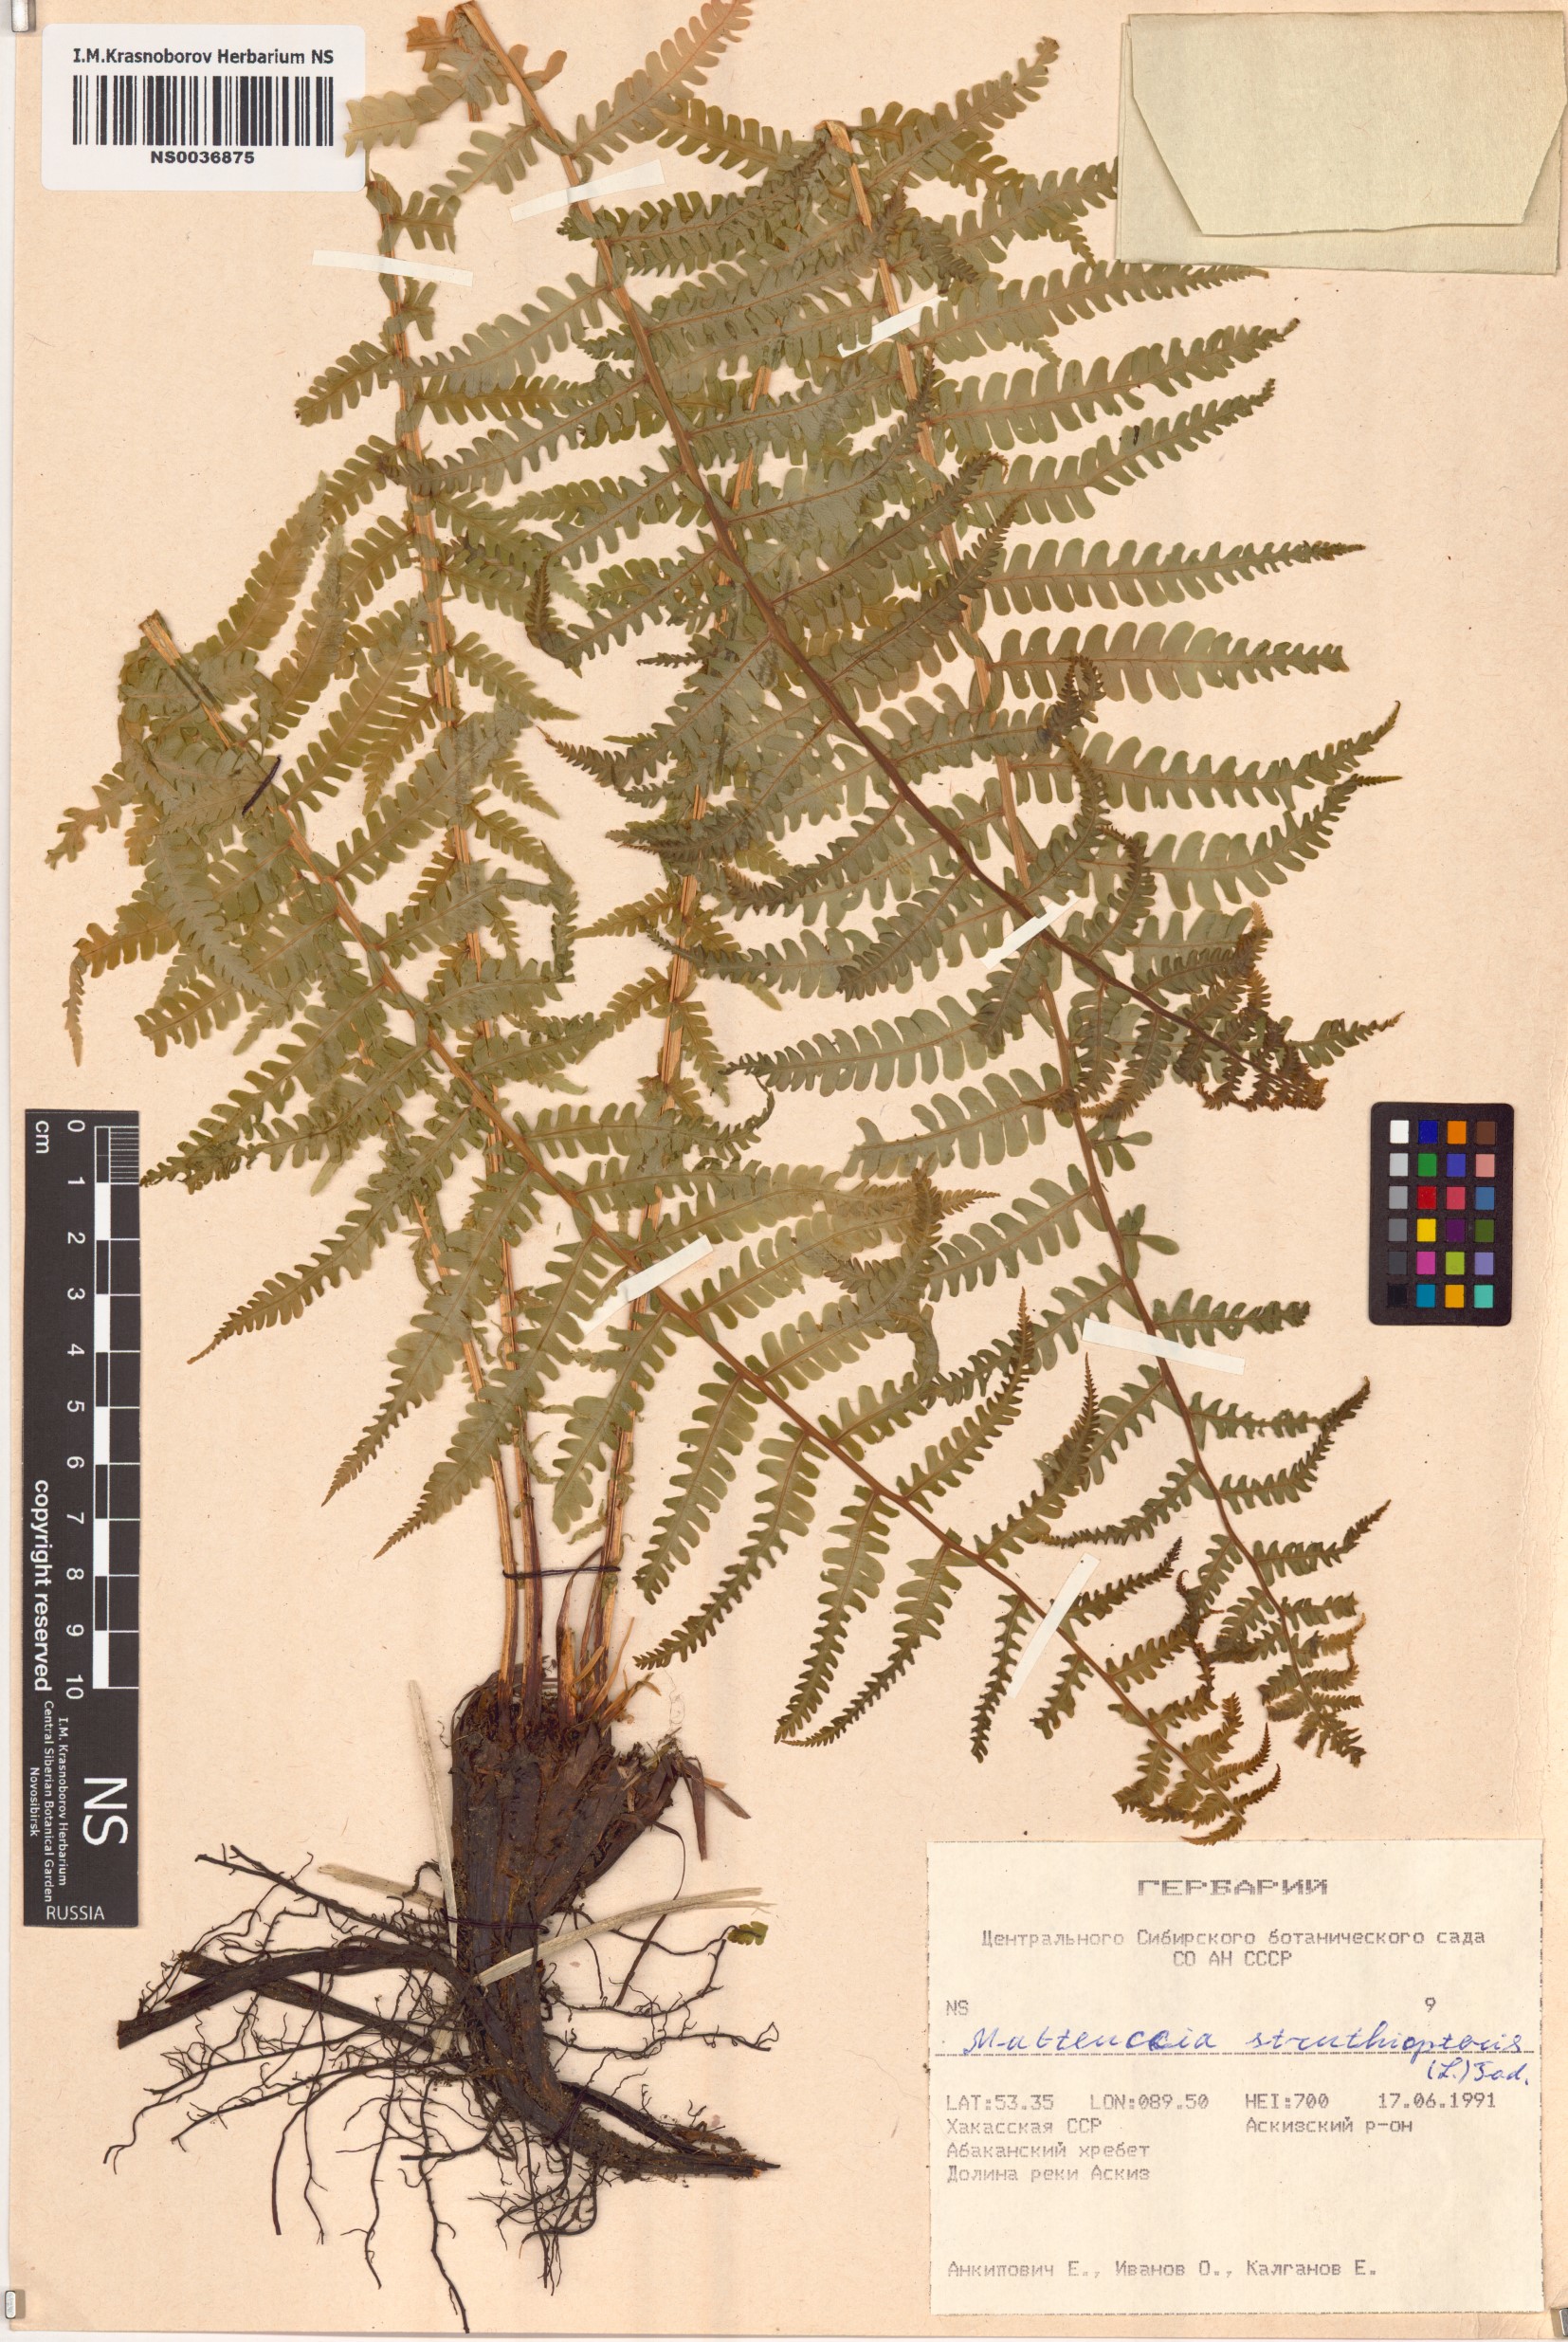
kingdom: Plantae
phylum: Tracheophyta
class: Polypodiopsida
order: Polypodiales
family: Onocleaceae
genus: Matteuccia
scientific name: Matteuccia struthiopteris
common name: Ostrich fern
